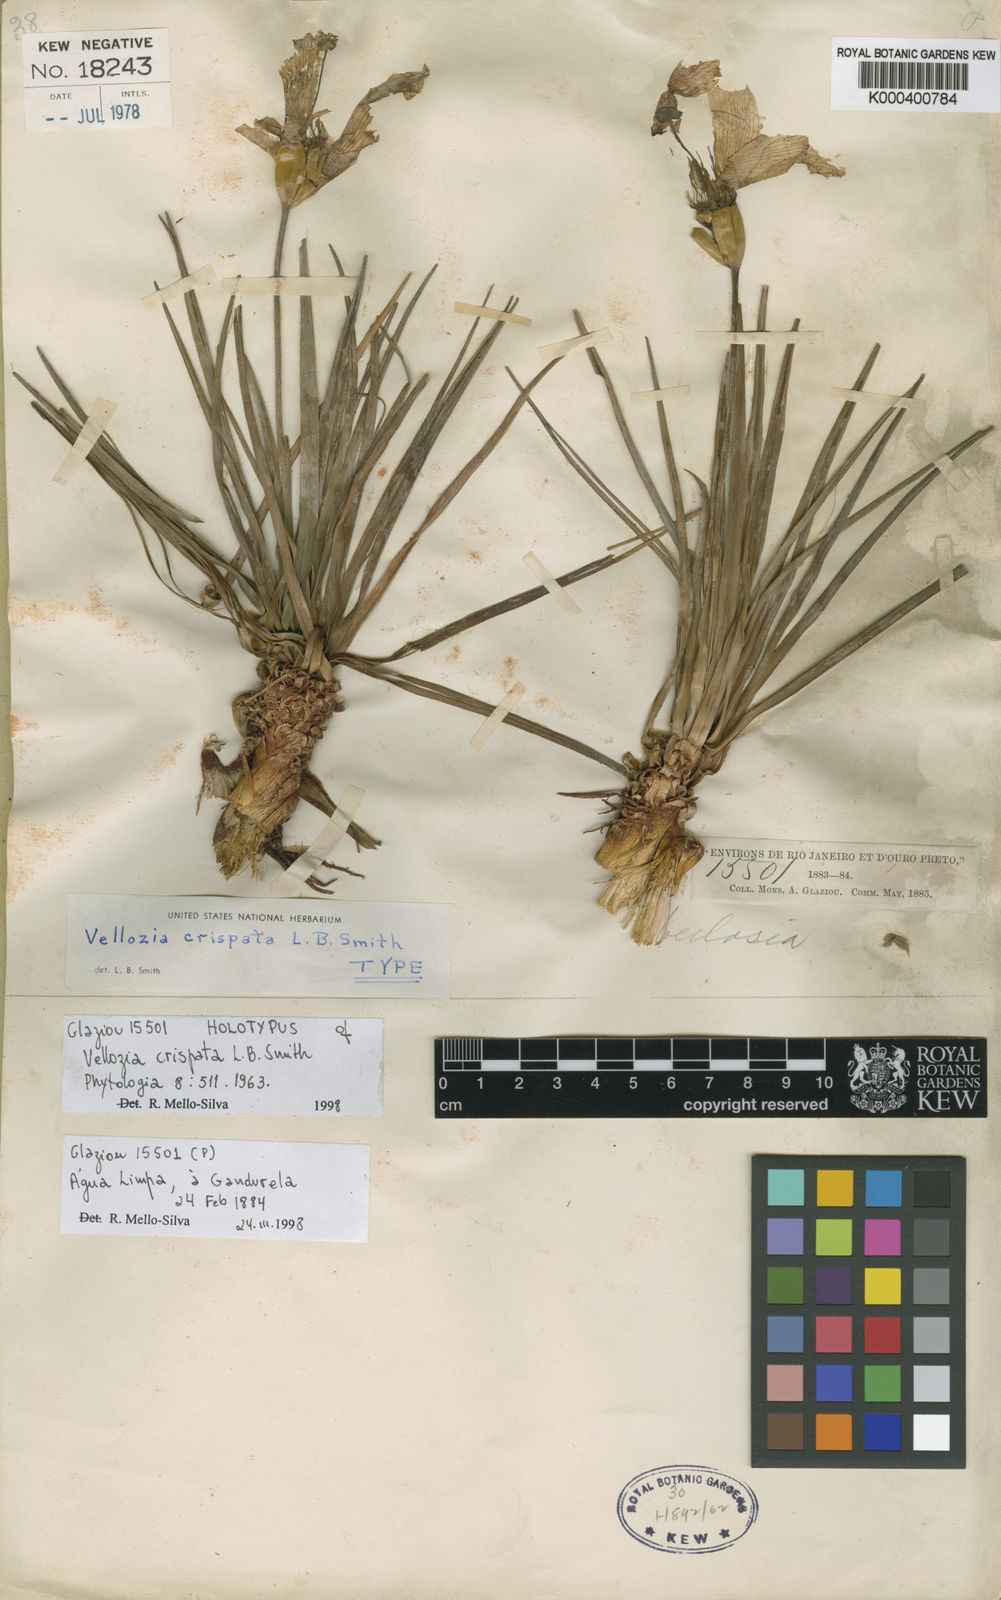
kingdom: Plantae
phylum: Tracheophyta
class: Liliopsida
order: Pandanales
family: Velloziaceae
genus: Vellozia
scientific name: Vellozia crispata
